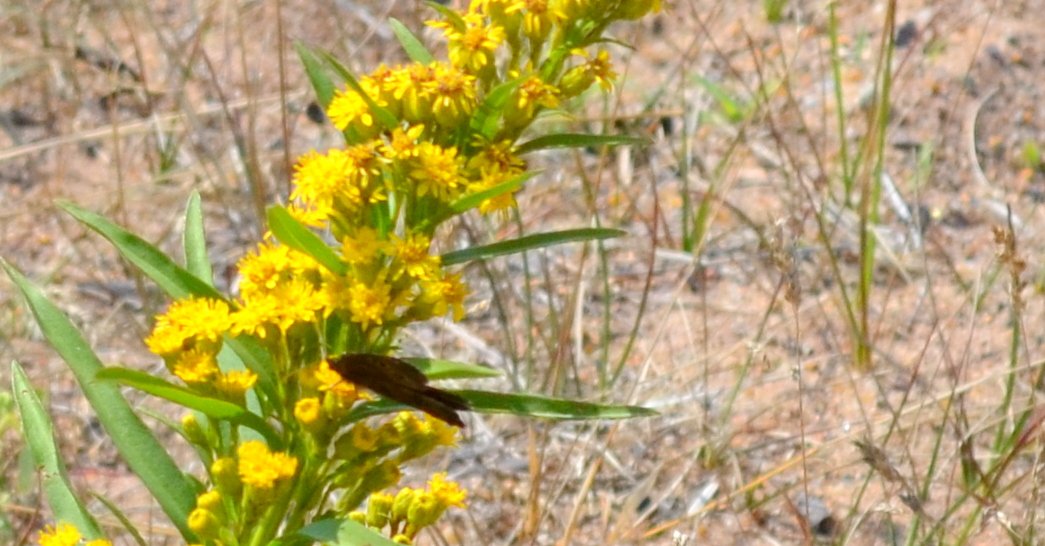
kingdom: Animalia
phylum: Arthropoda
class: Insecta
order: Lepidoptera
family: Nymphalidae
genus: Cercyonis
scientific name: Cercyonis pegala
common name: Common Wood-Nymph
